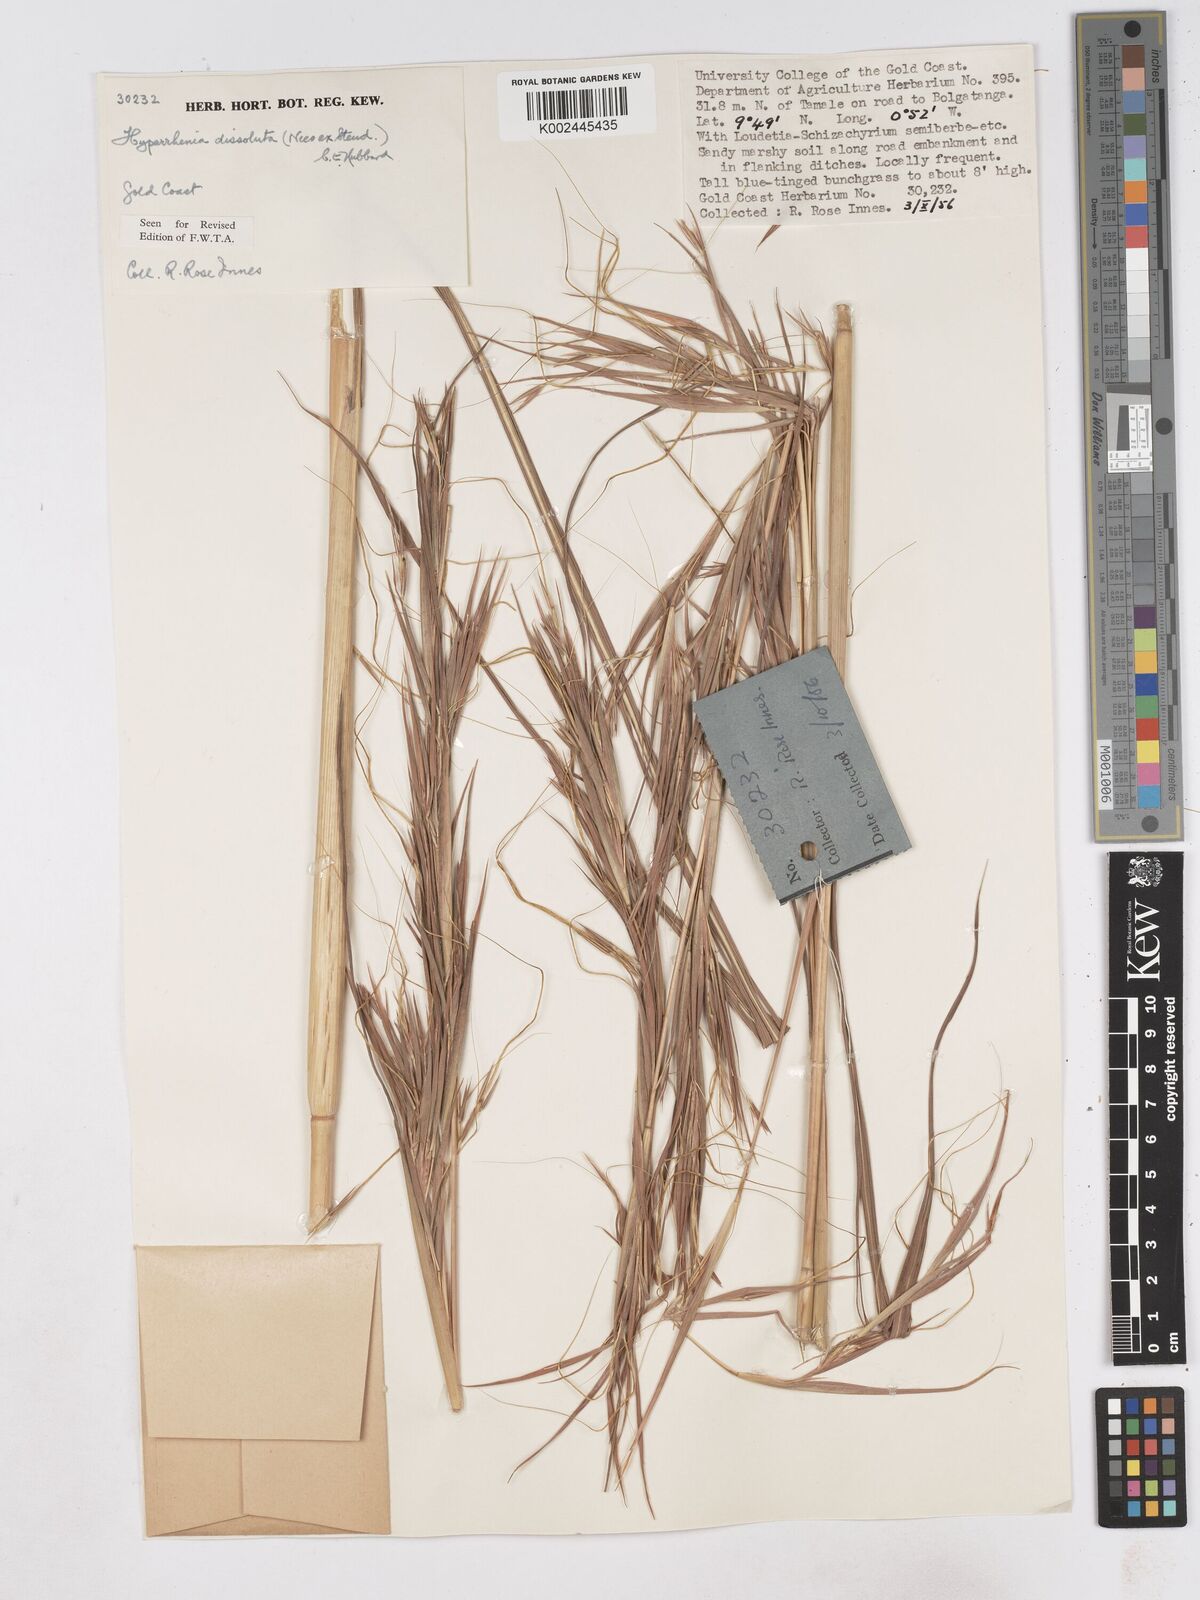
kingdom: Plantae
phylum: Tracheophyta
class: Liliopsida
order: Poales
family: Poaceae
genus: Hyperthelia
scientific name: Hyperthelia dissoluta
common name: Yellow thatching grass
